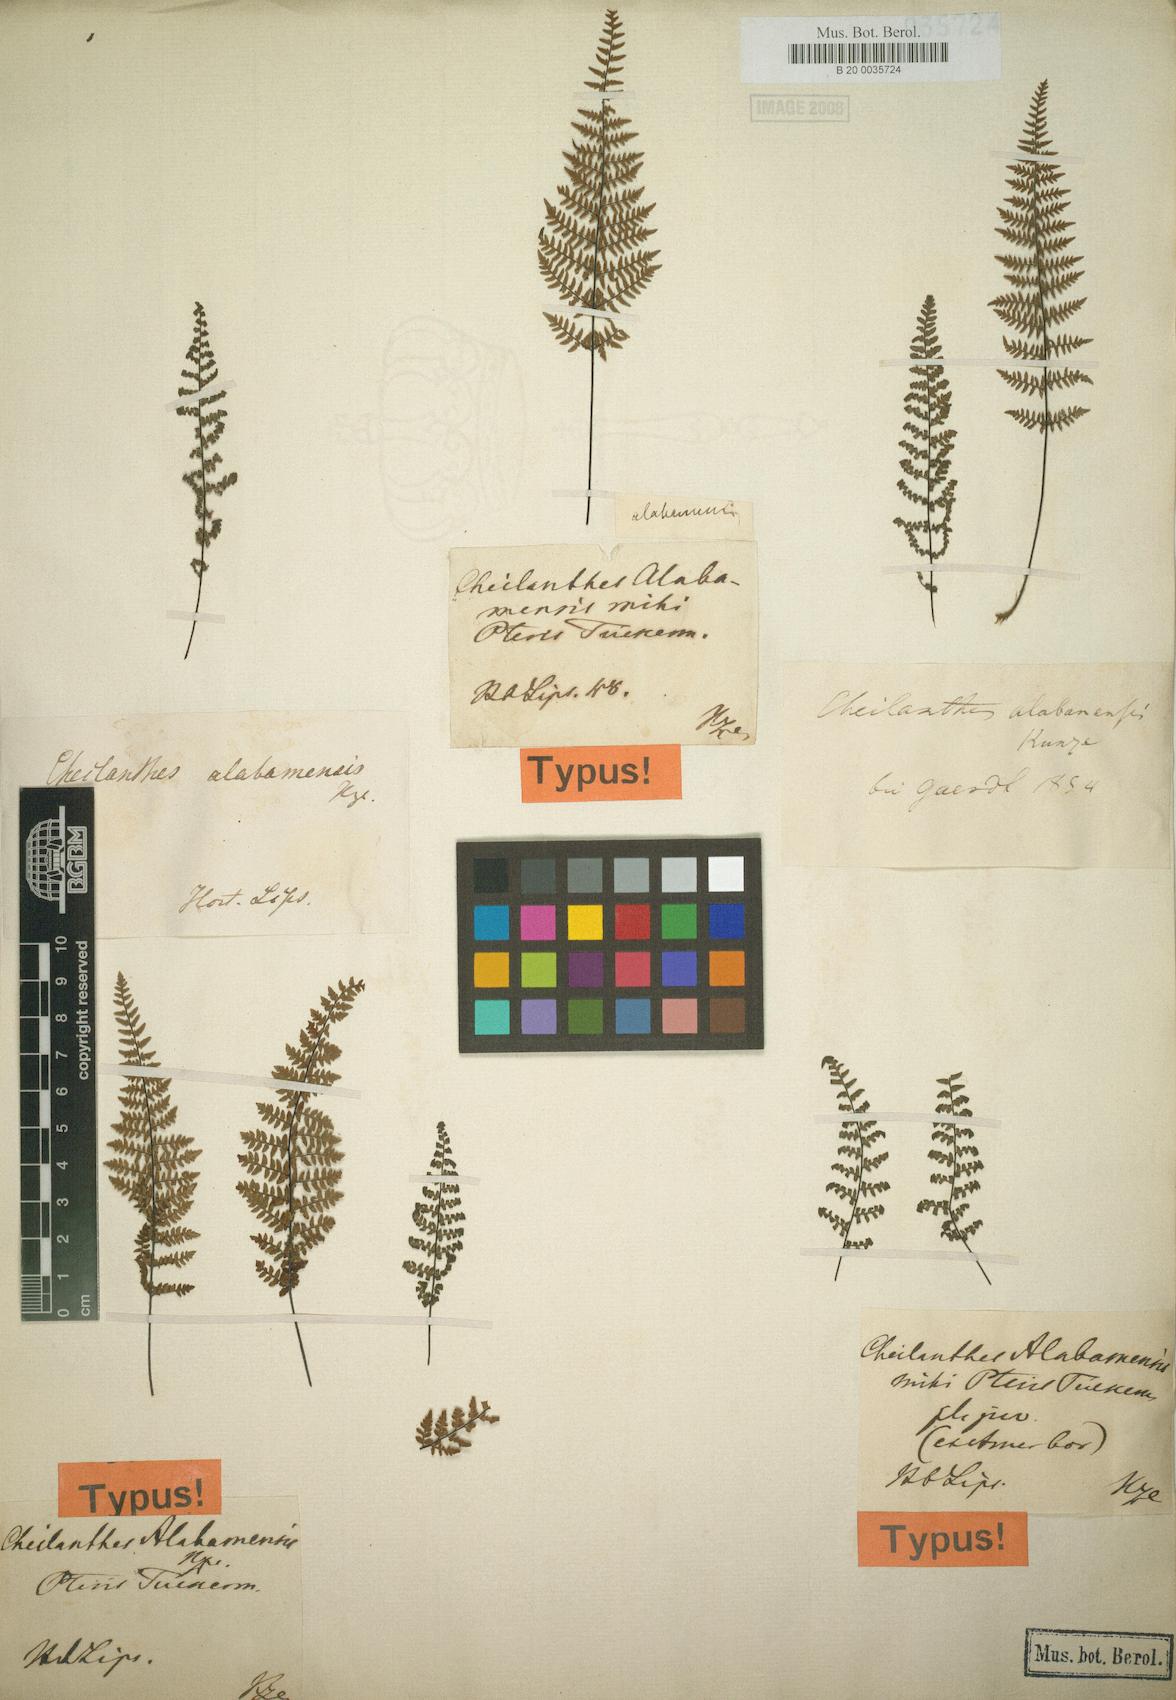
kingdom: Plantae
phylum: Tracheophyta
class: Polypodiopsida
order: Polypodiales
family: Pteridaceae
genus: Myriopteris
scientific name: Myriopteris alabamensis
